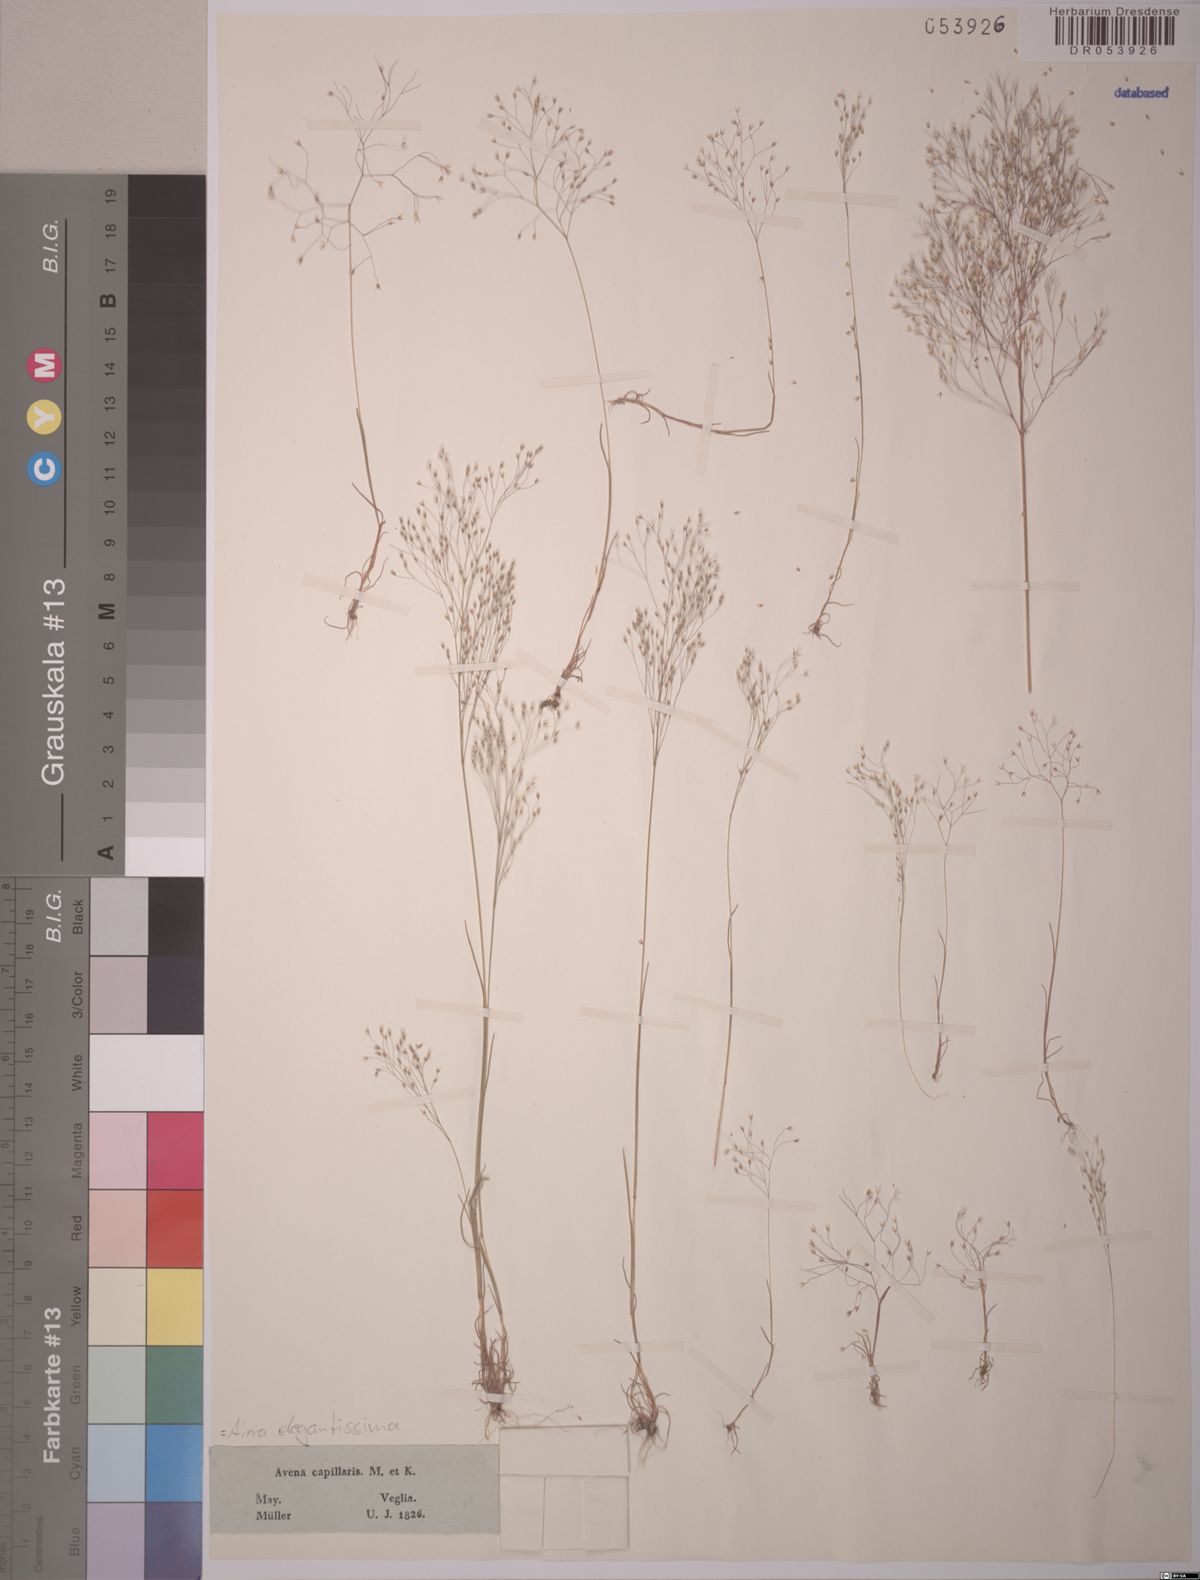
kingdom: Plantae
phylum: Tracheophyta
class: Liliopsida
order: Poales
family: Poaceae
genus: Aira
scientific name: Aira elegans
